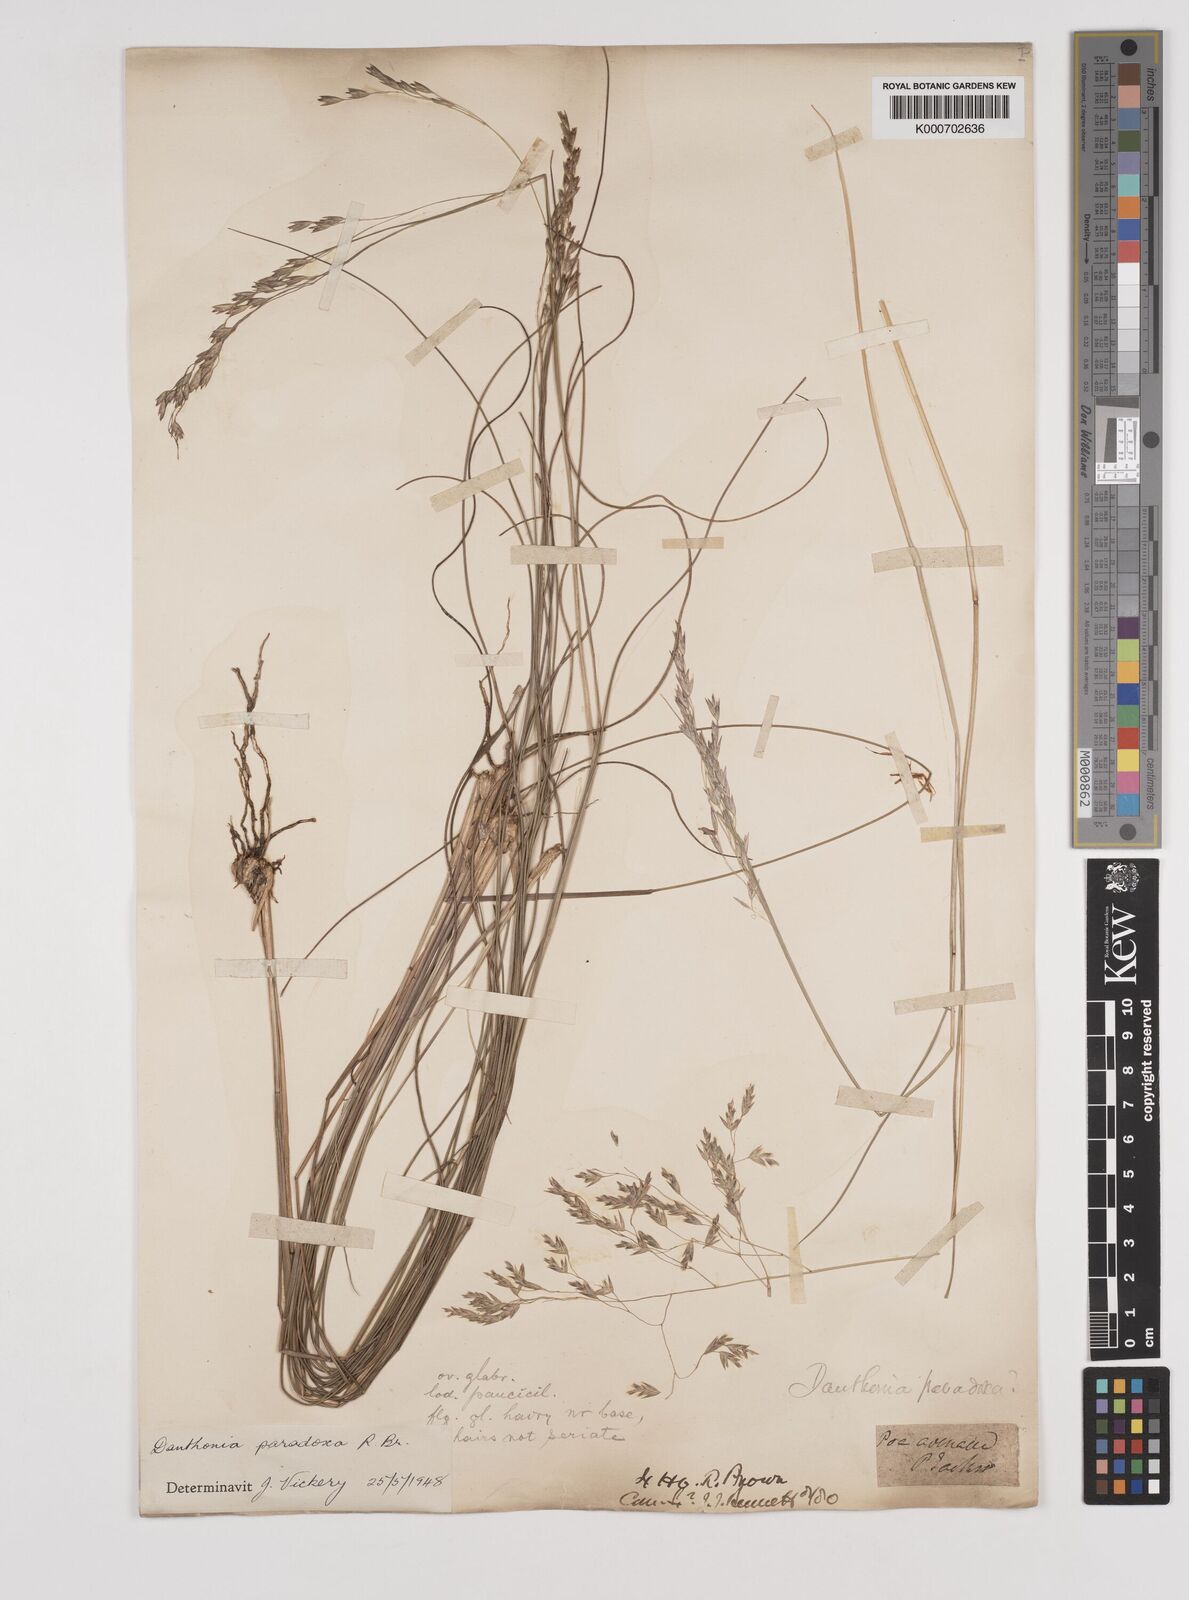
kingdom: Plantae
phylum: Tracheophyta
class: Liliopsida
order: Poales
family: Poaceae
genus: Plinthanthesis
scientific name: Plinthanthesis paradoxa
